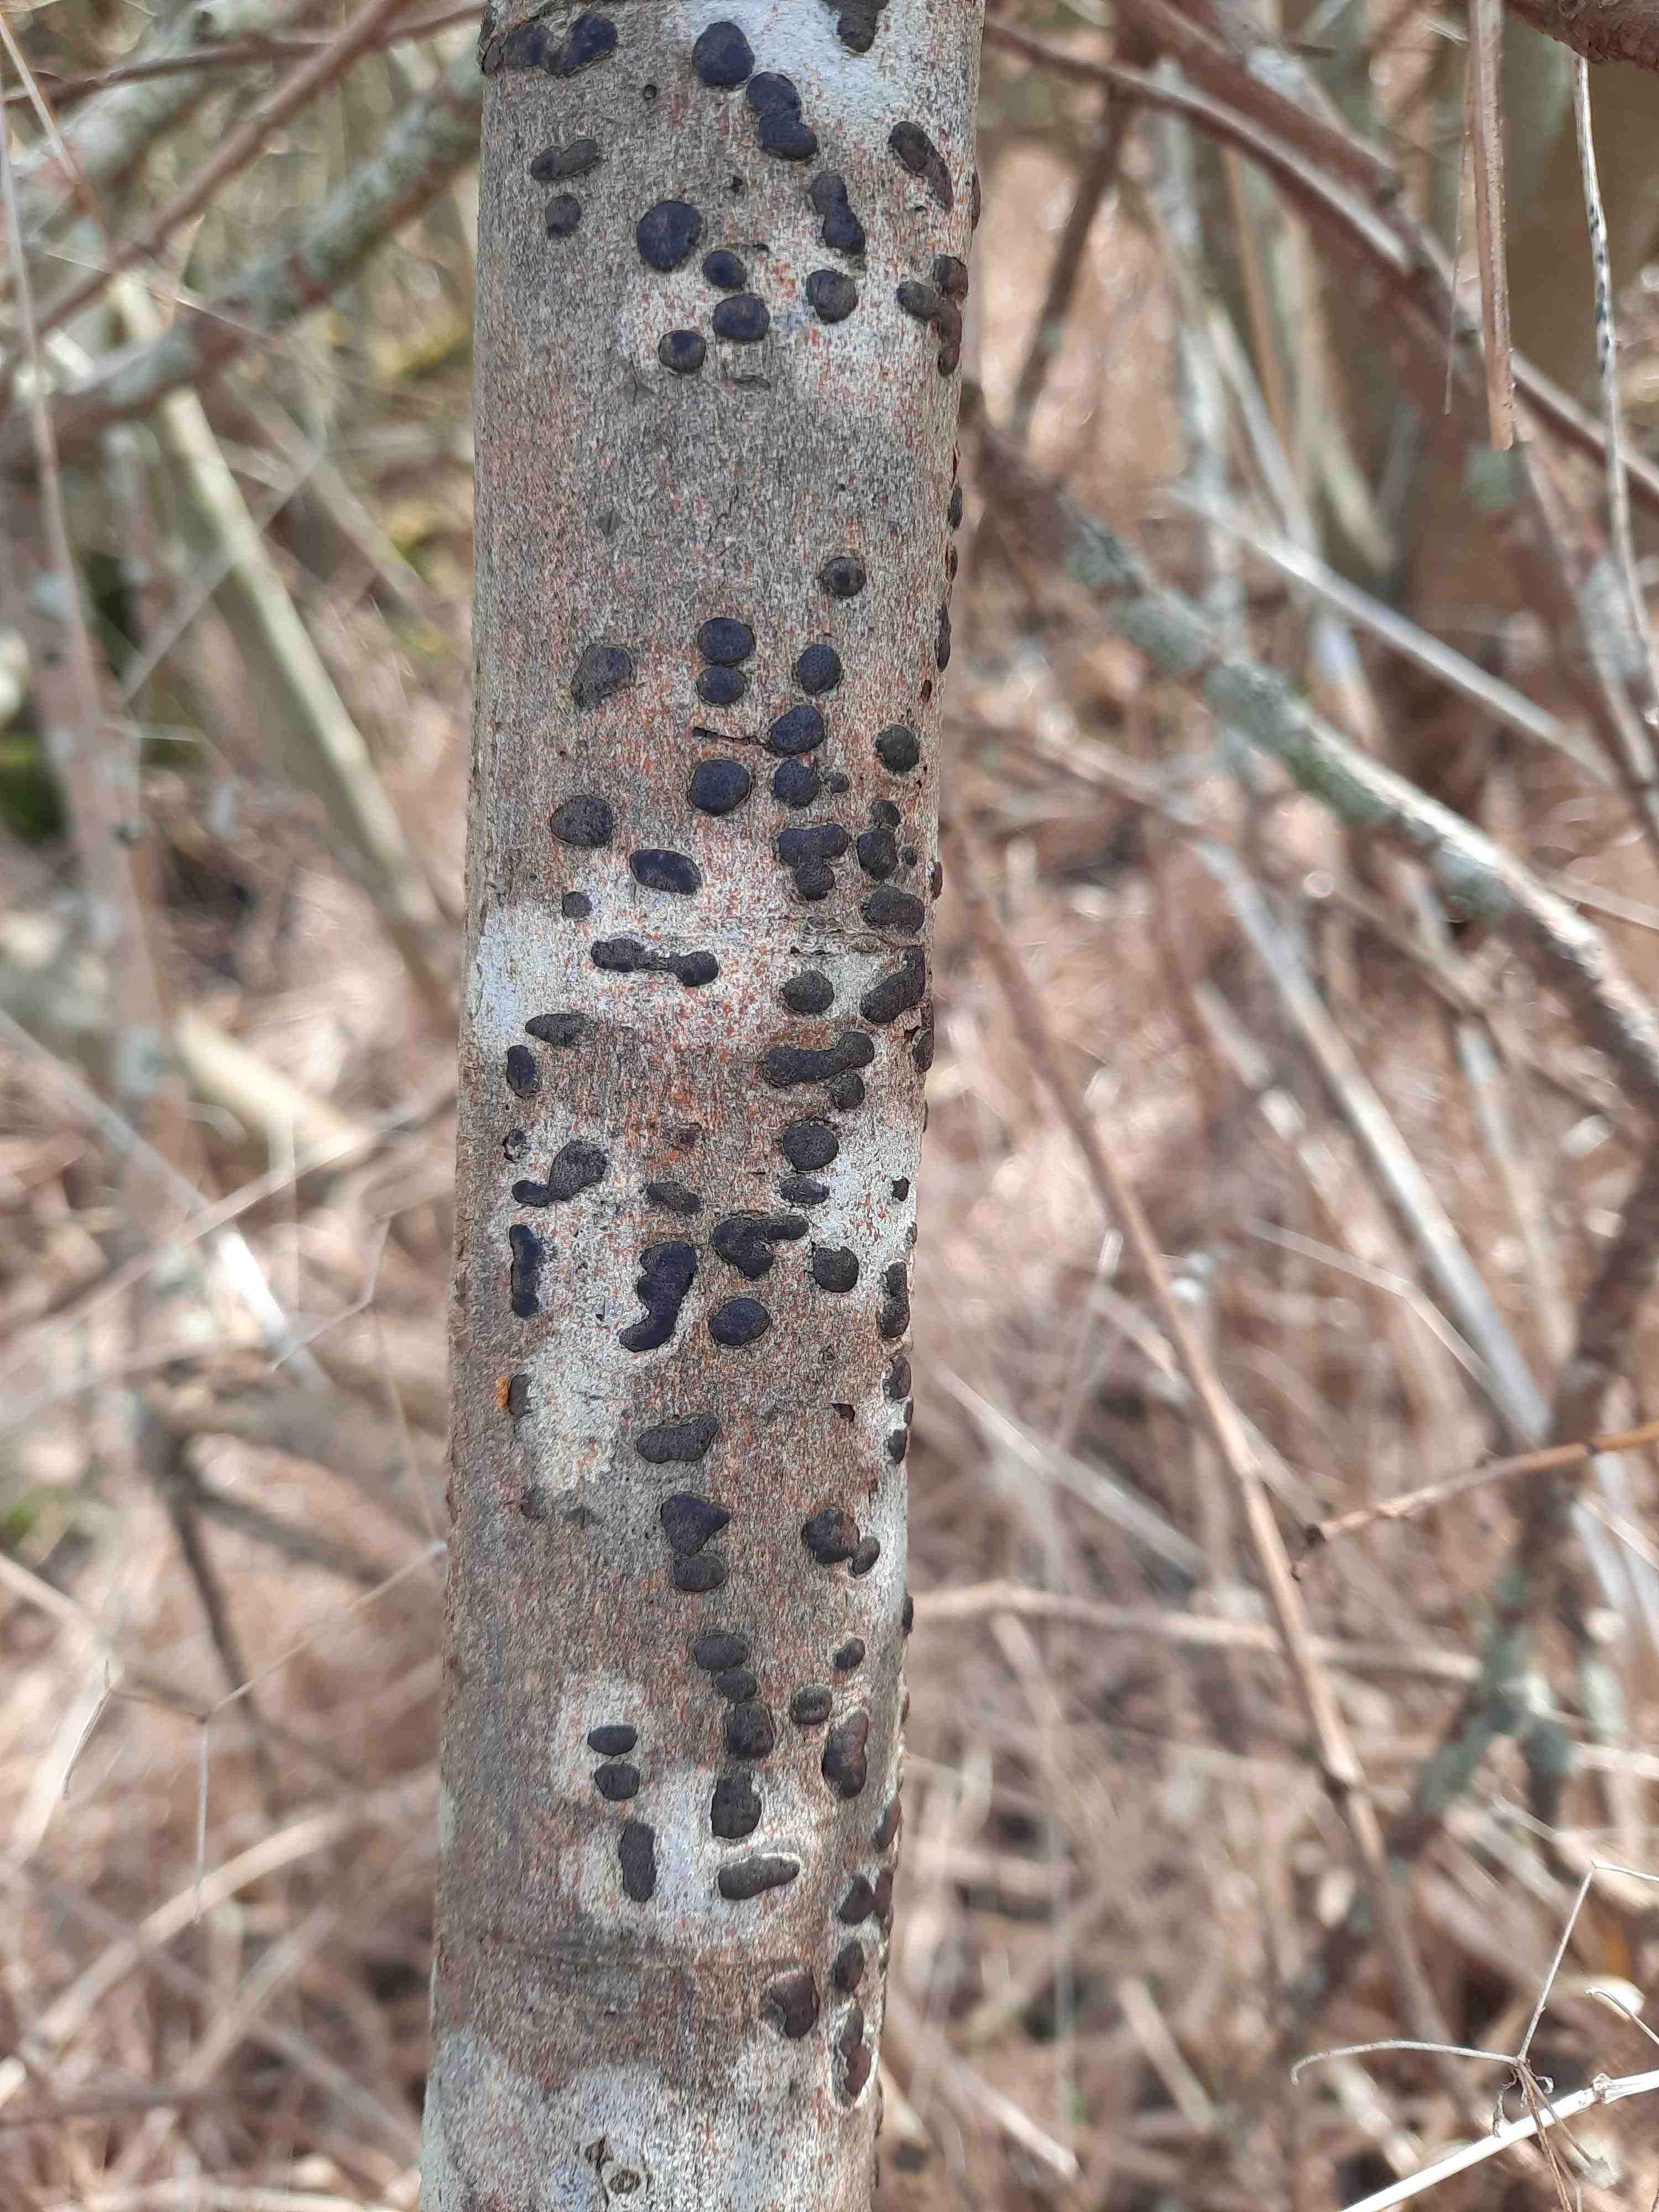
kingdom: Fungi
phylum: Ascomycota
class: Sordariomycetes
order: Xylariales
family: Diatrypaceae
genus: Diatrype
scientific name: Diatrype bullata
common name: pile-kulskorpe
